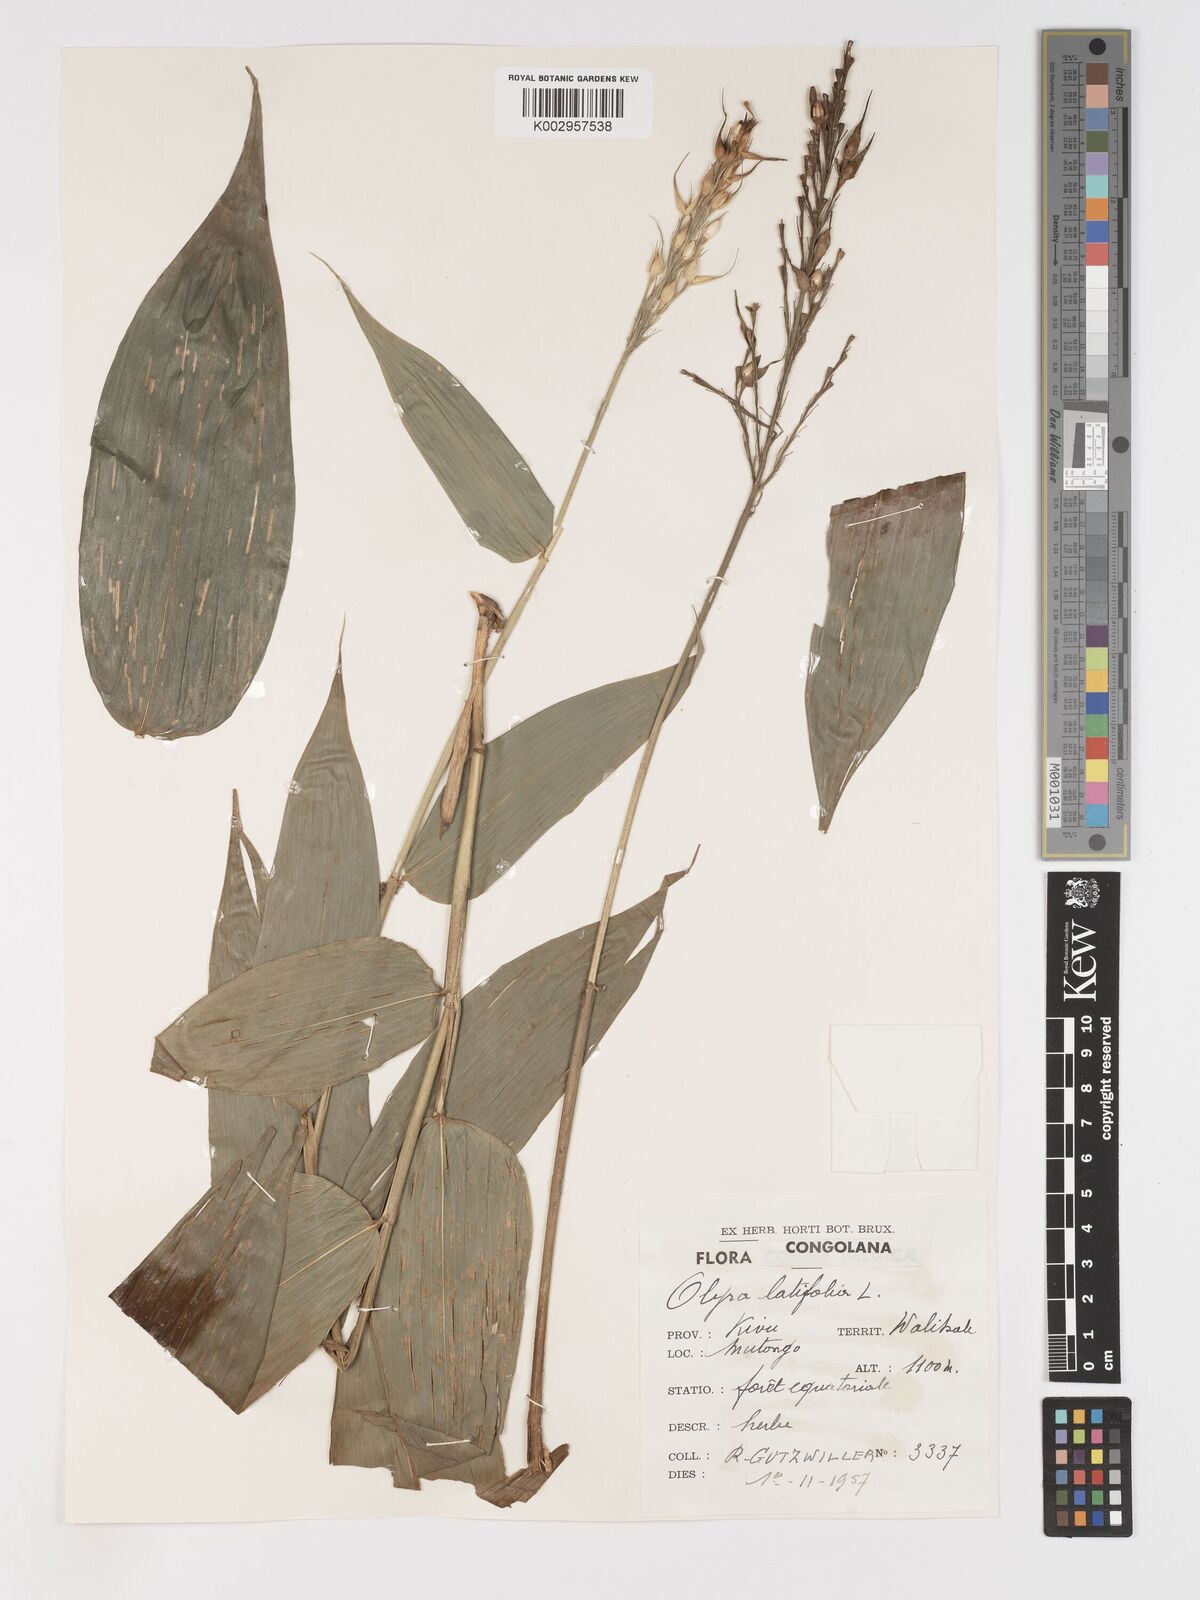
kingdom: Plantae
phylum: Tracheophyta
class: Liliopsida
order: Poales
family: Poaceae
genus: Olyra
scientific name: Olyra latifolia
